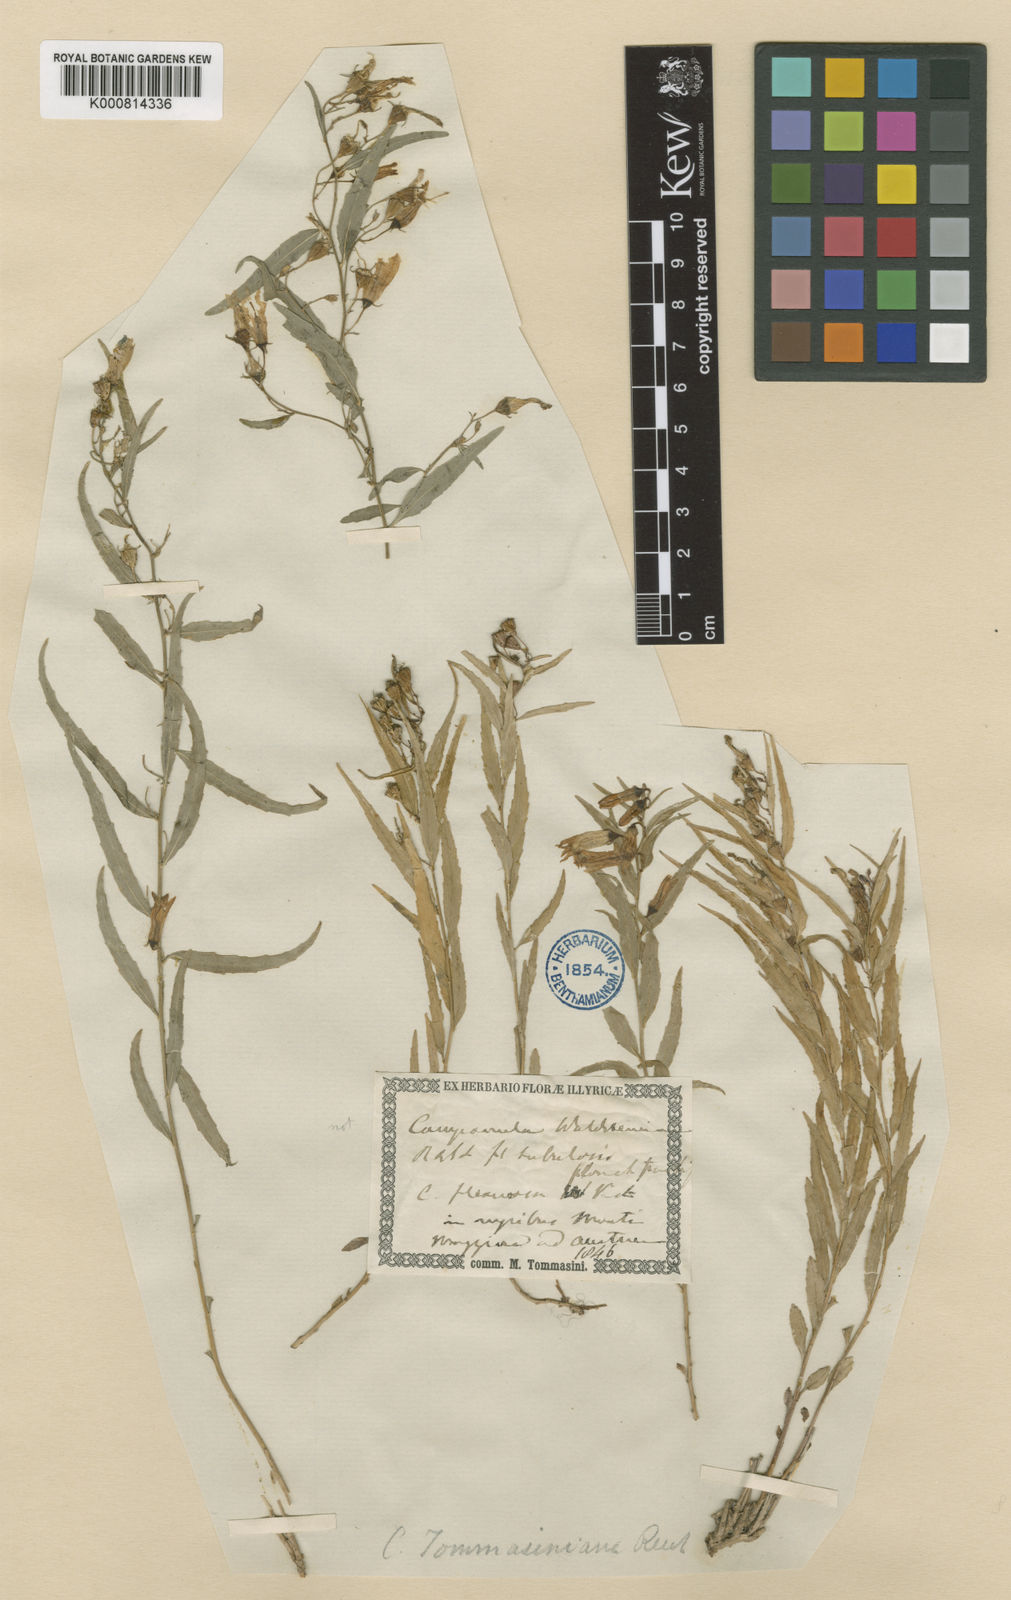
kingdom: Plantae
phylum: Tracheophyta
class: Magnoliopsida
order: Asterales
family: Campanulaceae
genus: Campanula
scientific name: Campanula
